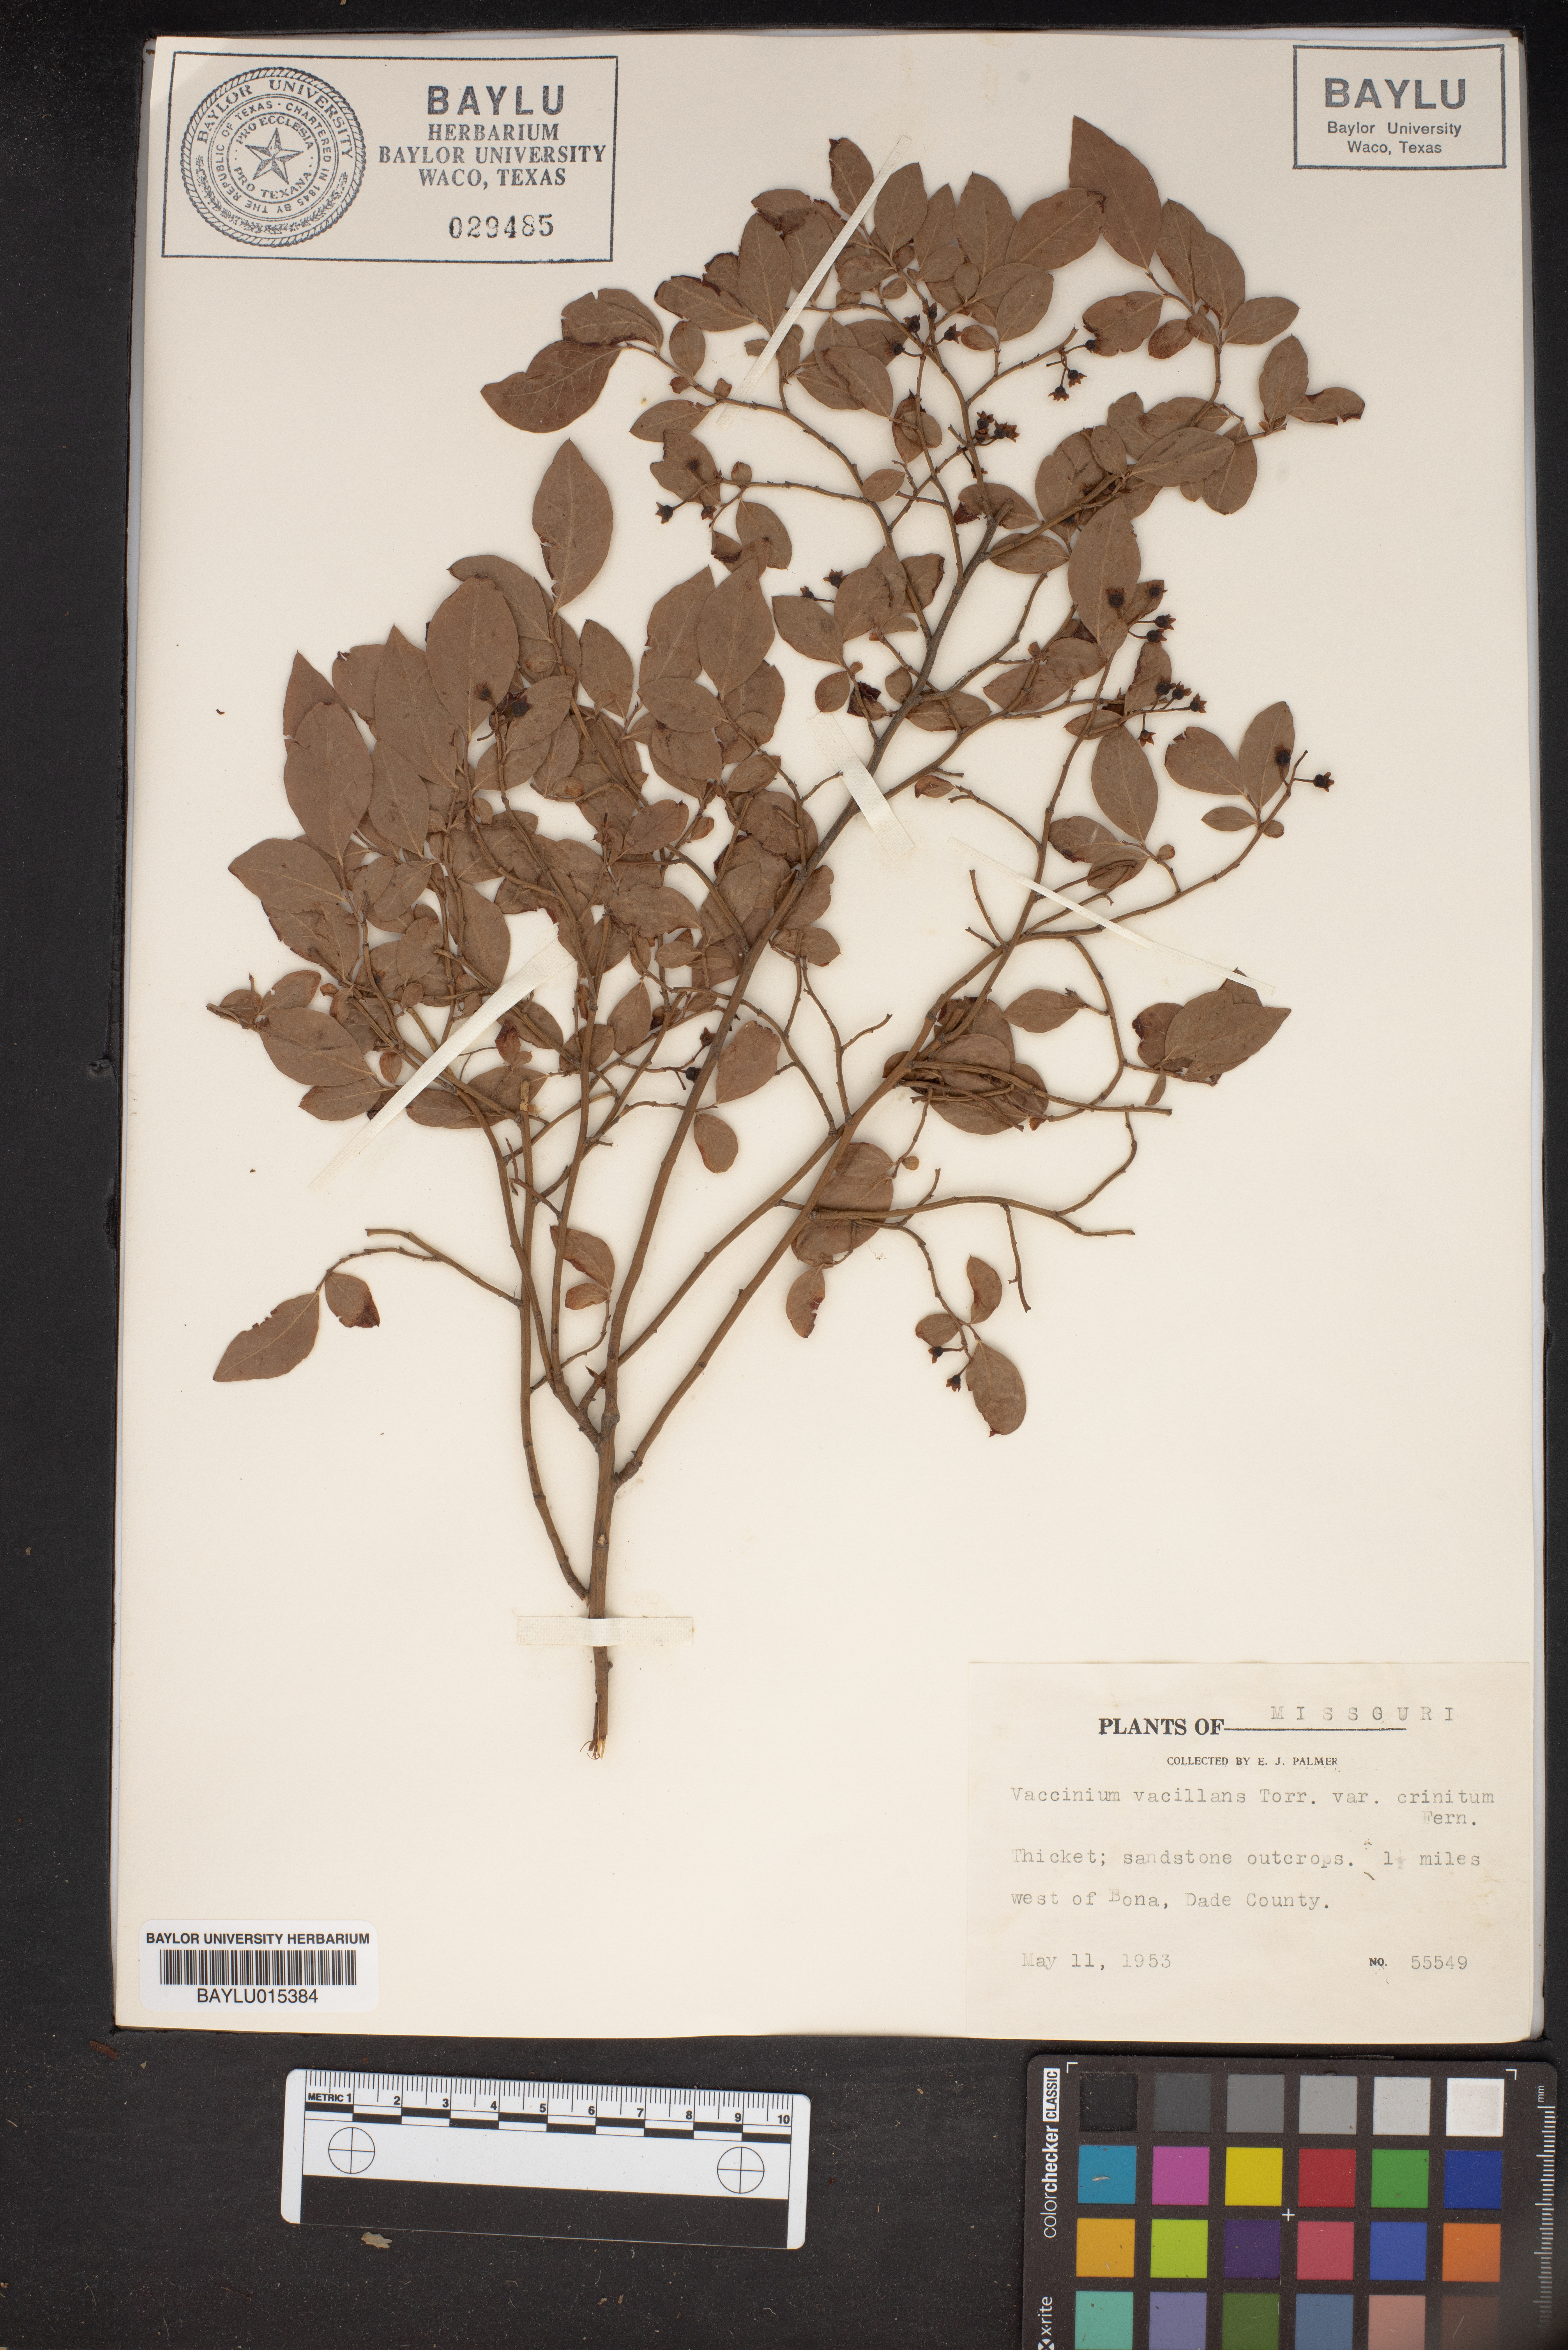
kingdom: Plantae
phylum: Tracheophyta
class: Magnoliopsida
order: Ericales
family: Ericaceae
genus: Vaccinium
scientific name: Vaccinium pallidum
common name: Blue ridge blueberry
